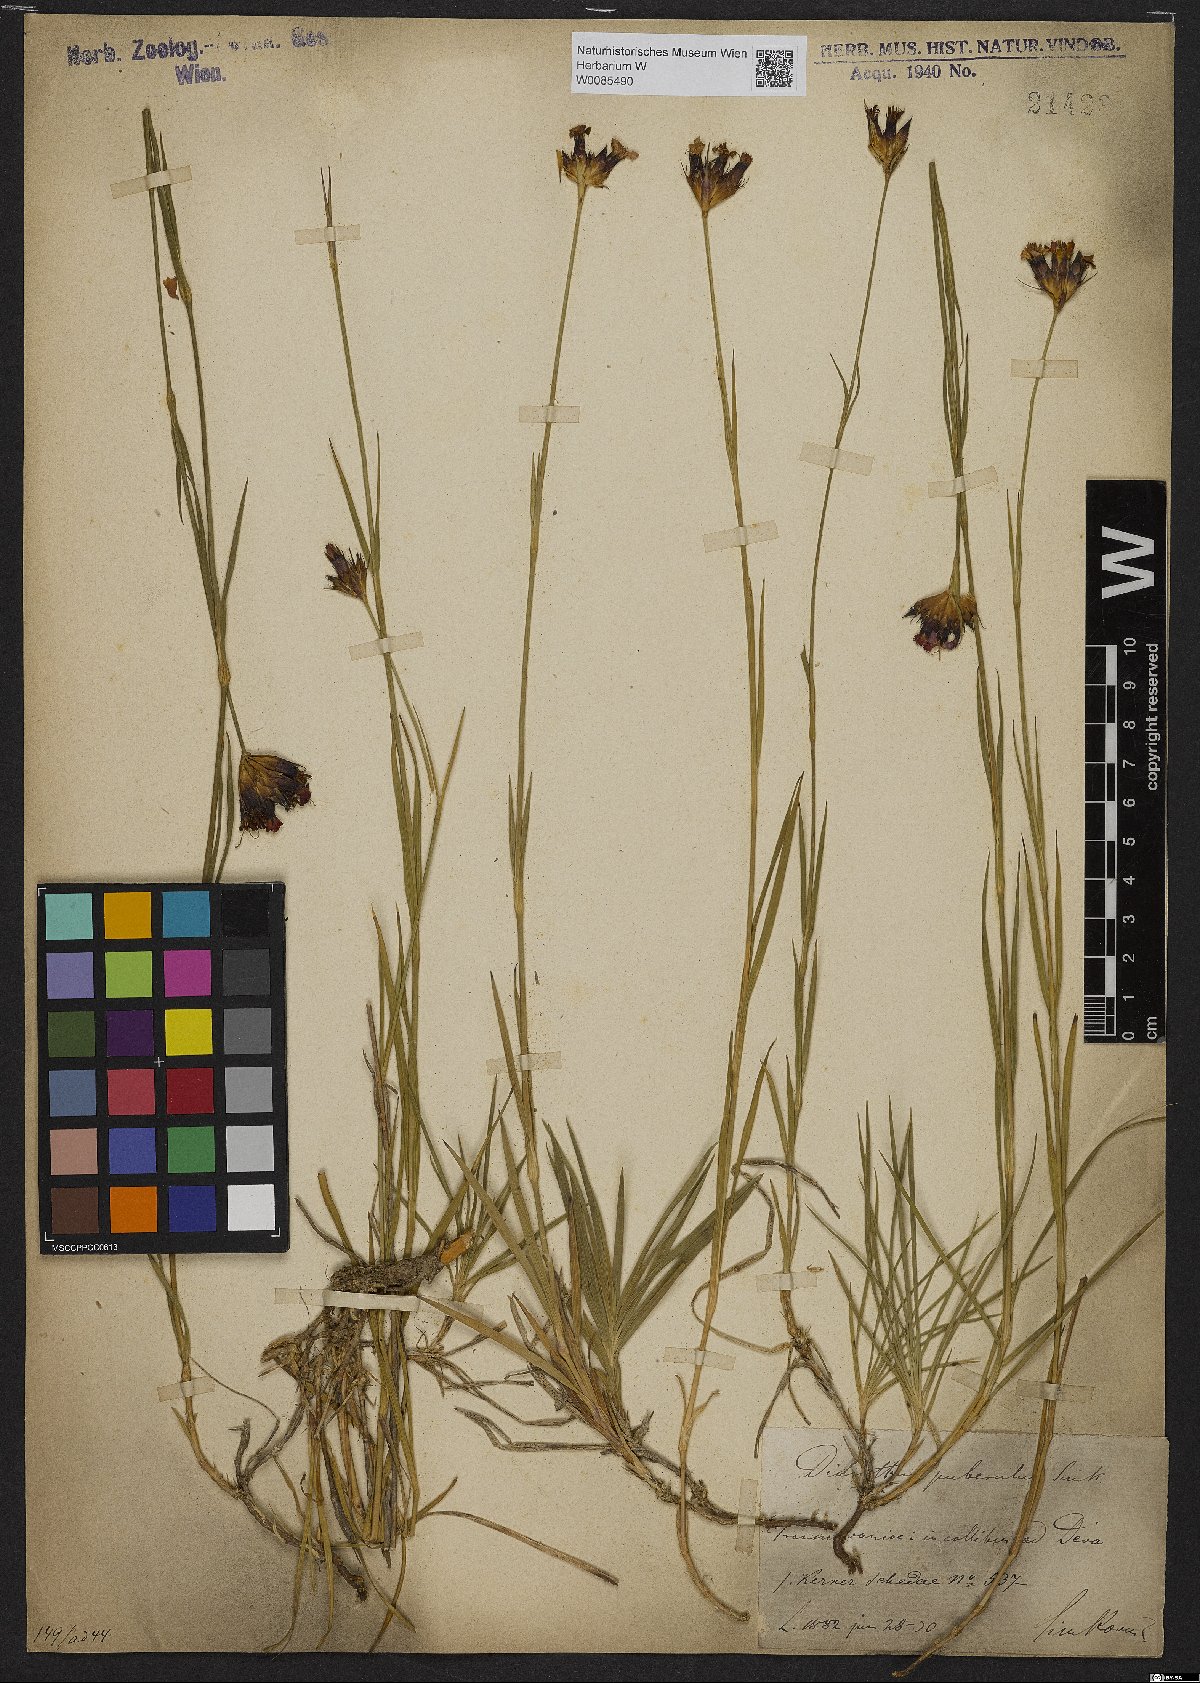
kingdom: Plantae
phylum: Tracheophyta
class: Magnoliopsida
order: Caryophyllales
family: Caryophyllaceae
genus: Dianthus
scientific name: Dianthus carthusianorum
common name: Carthusian pink
